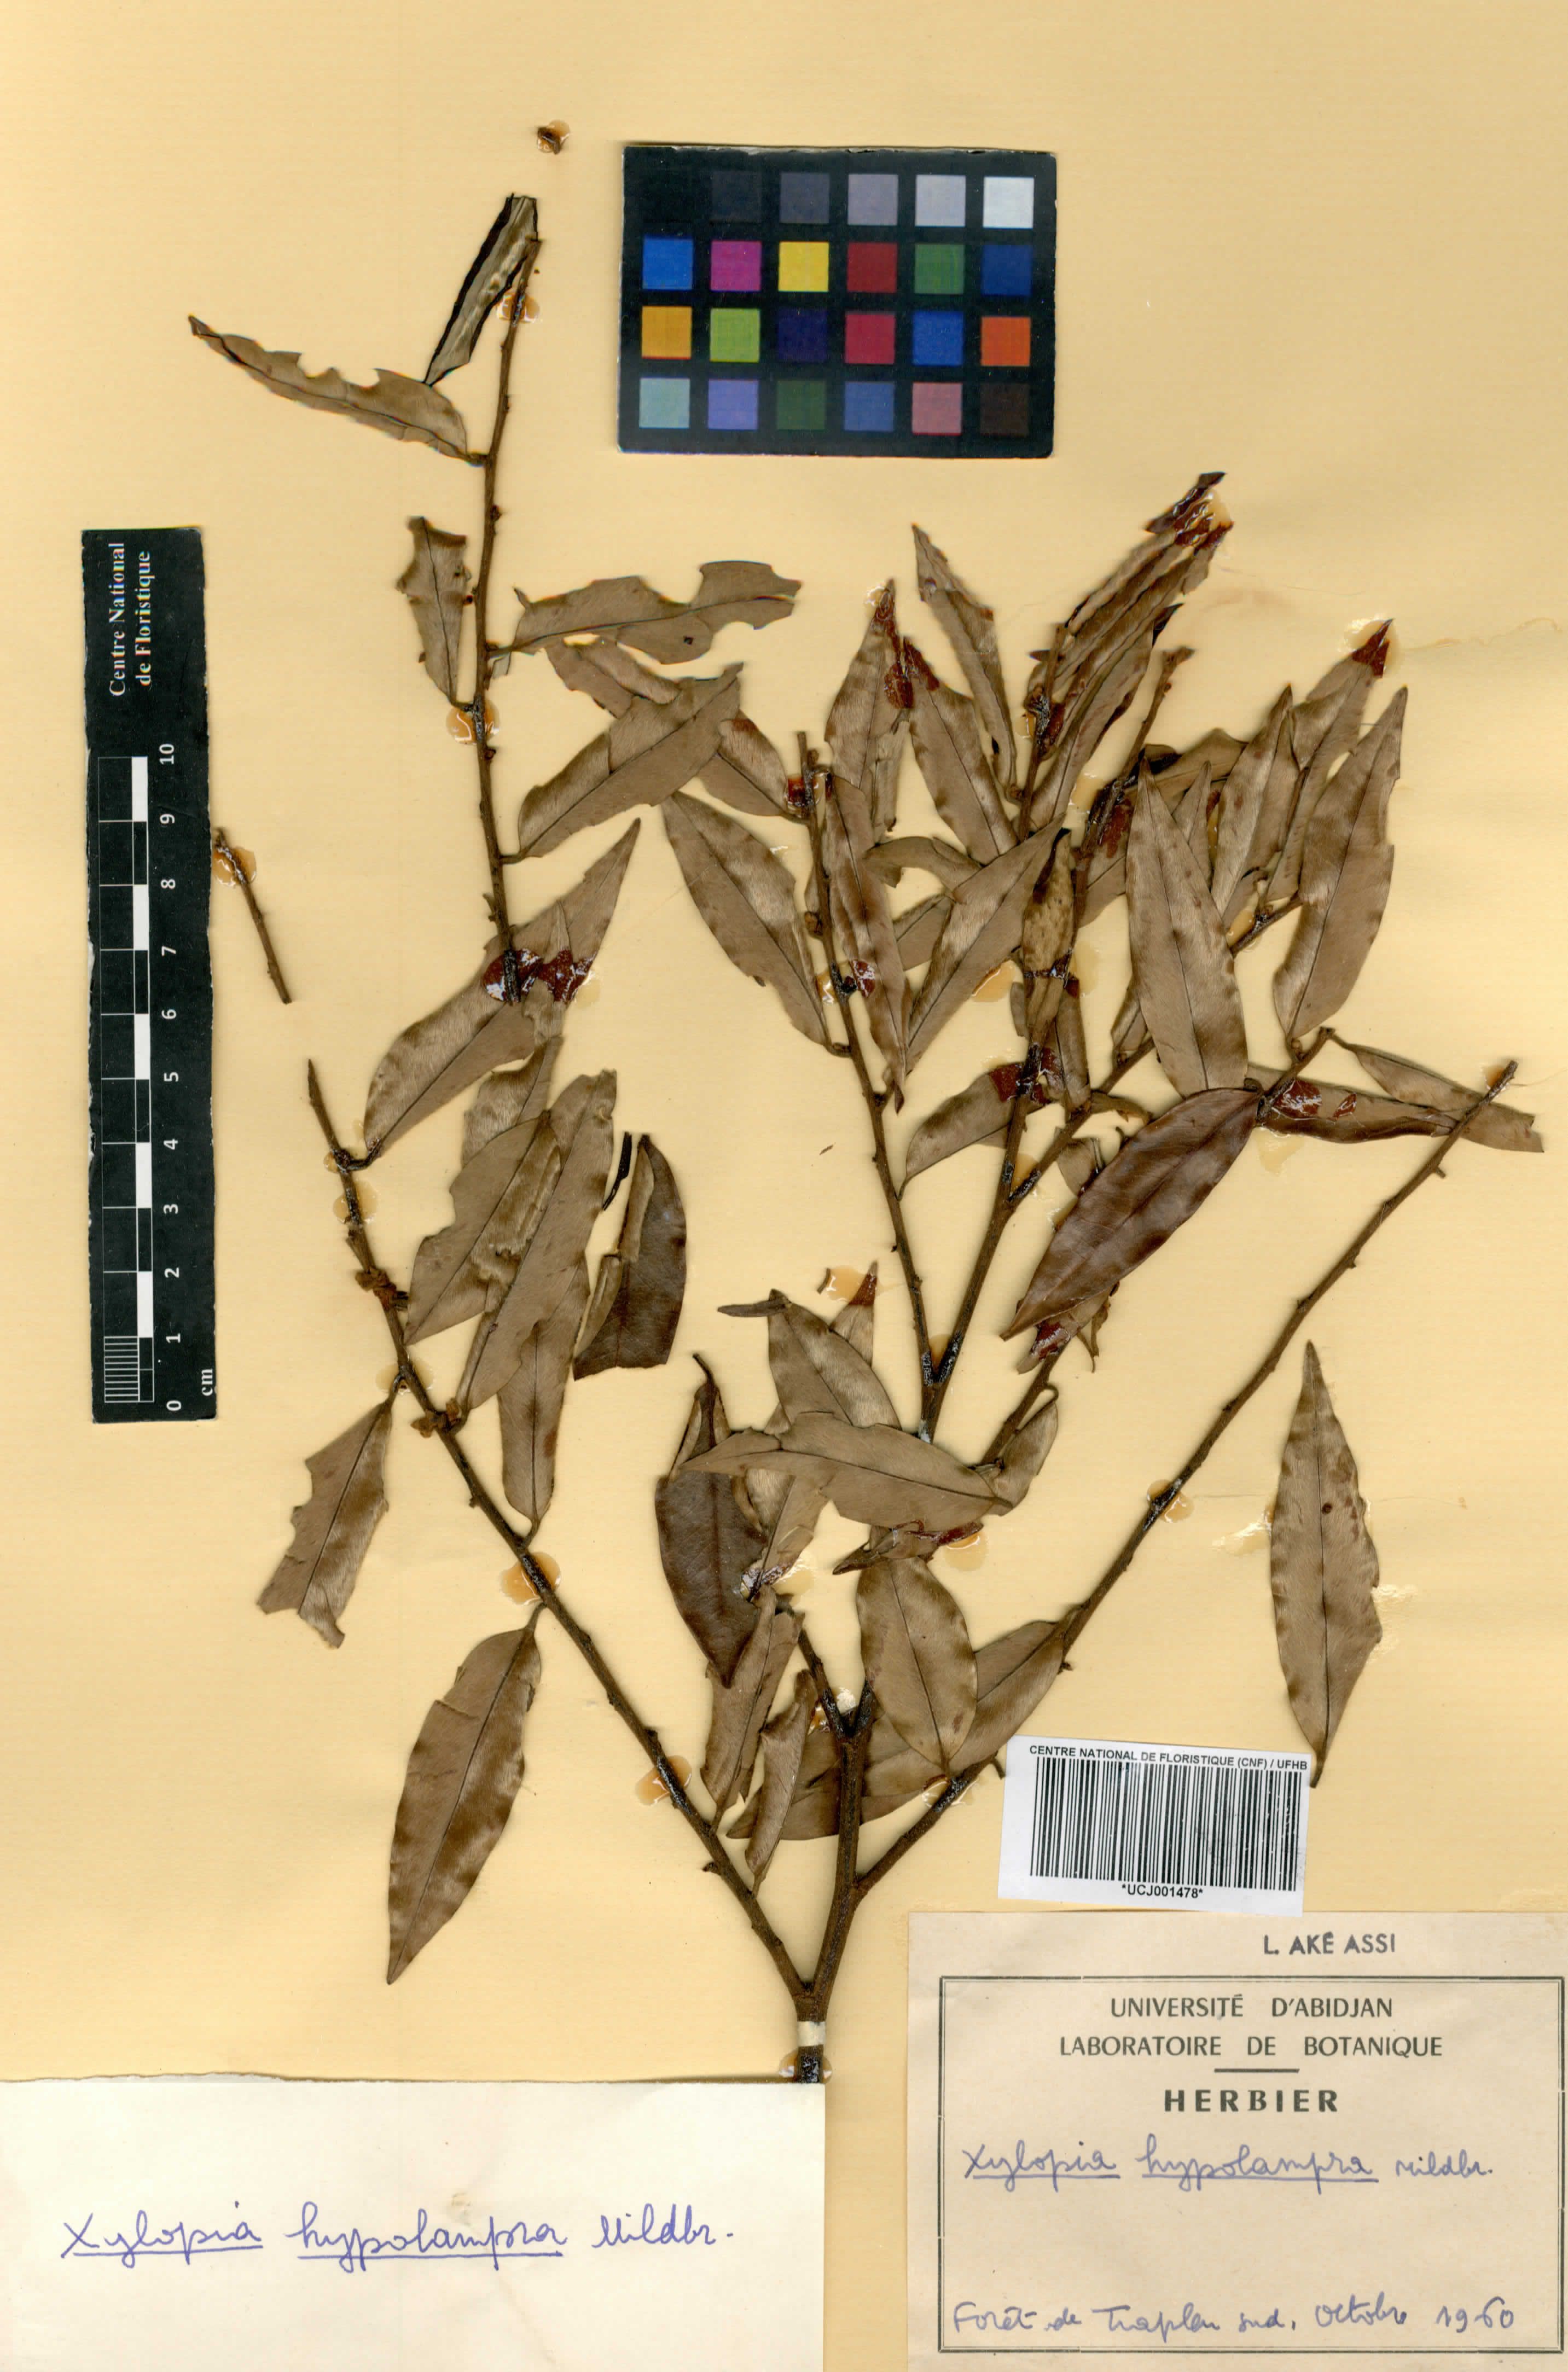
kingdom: Plantae
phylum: Tracheophyta
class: Magnoliopsida
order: Magnoliales
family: Annonaceae
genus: Xylopia
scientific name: Xylopia hypolampra
